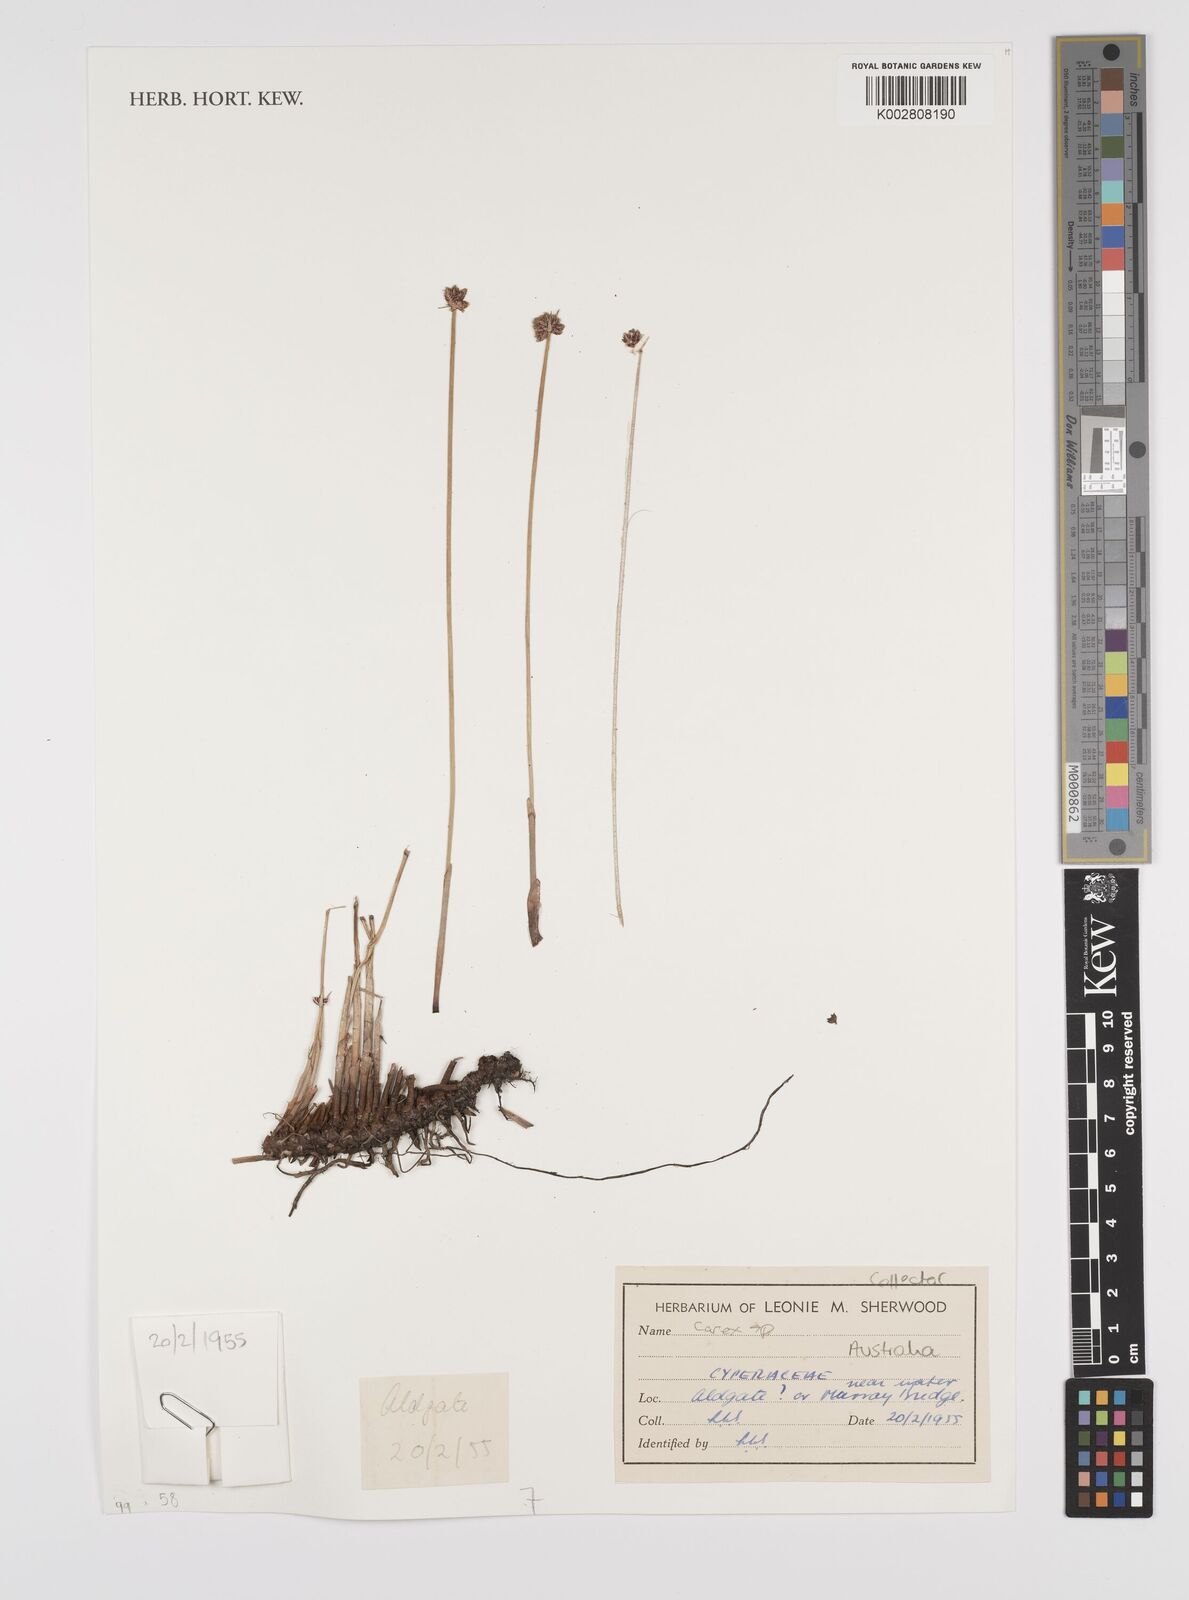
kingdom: Plantae
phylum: Tracheophyta
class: Liliopsida
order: Poales
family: Cyperaceae
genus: Carex
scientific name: Carex
